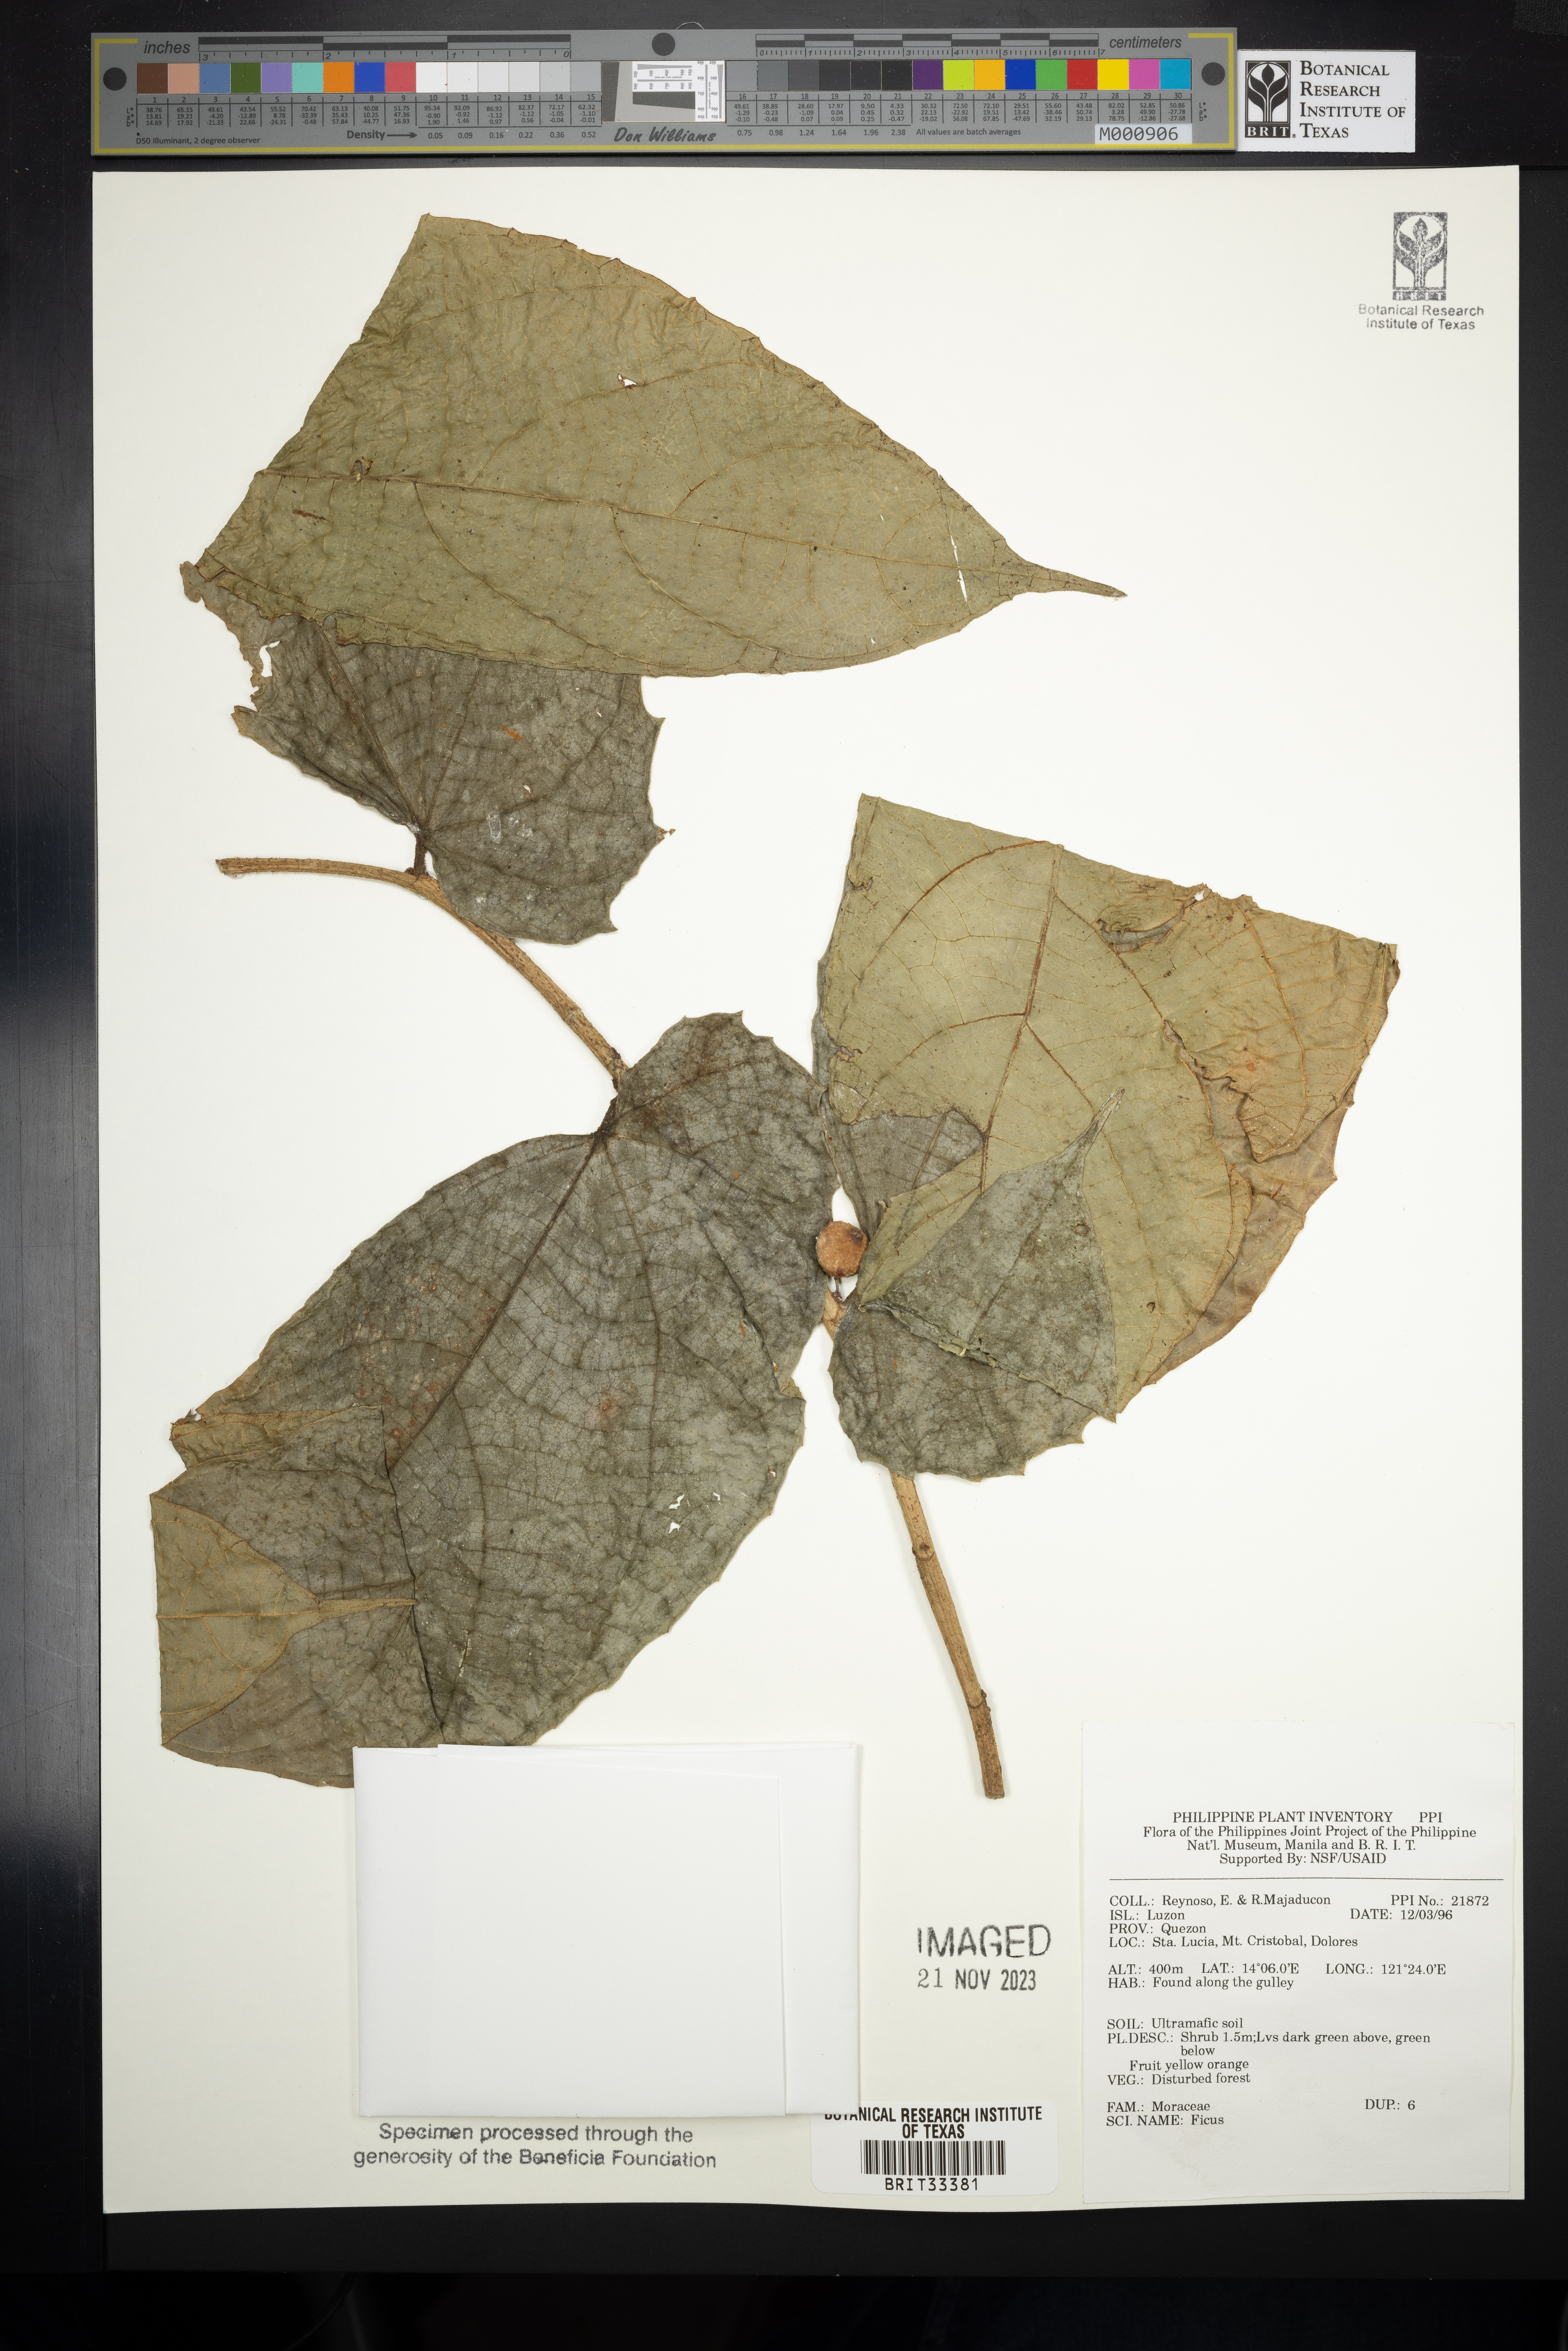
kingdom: Plantae
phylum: Tracheophyta
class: Magnoliopsida
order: Rosales
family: Moraceae
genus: Ficus
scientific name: Ficus
